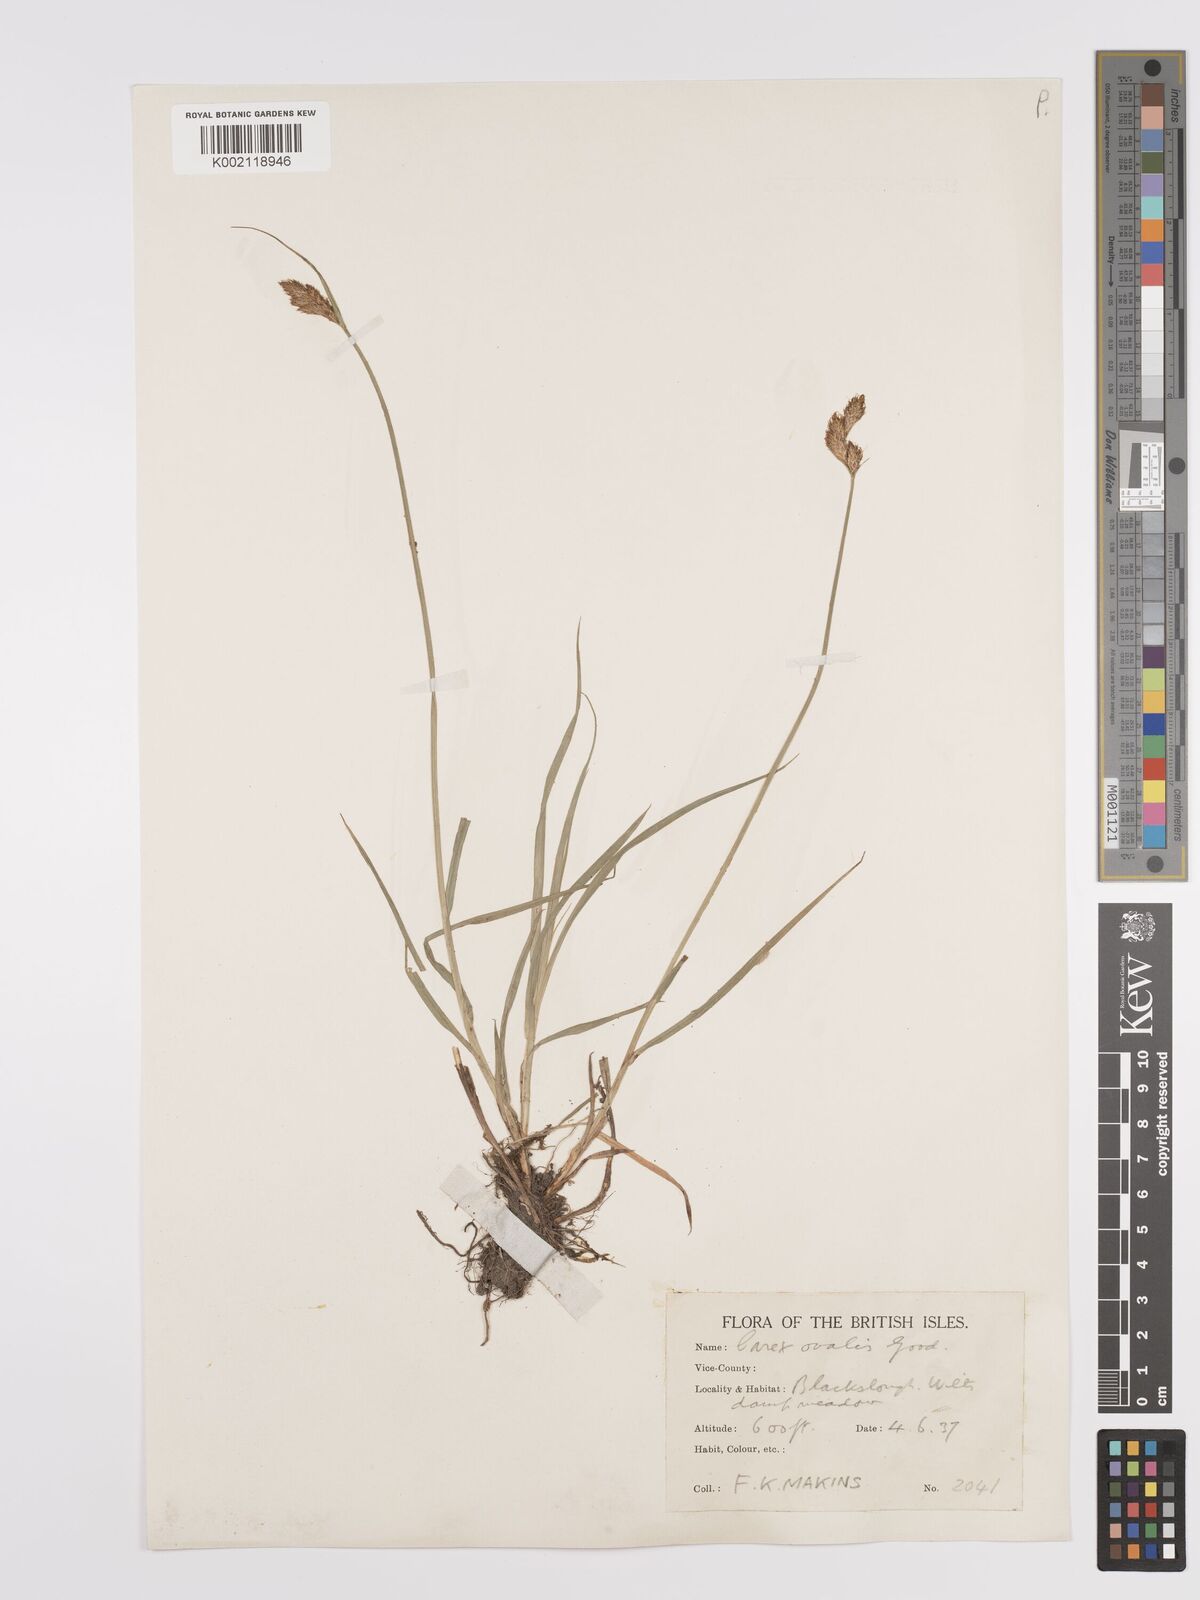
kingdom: Plantae
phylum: Tracheophyta
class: Liliopsida
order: Poales
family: Cyperaceae
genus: Carex
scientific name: Carex leporina
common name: Oval sedge
